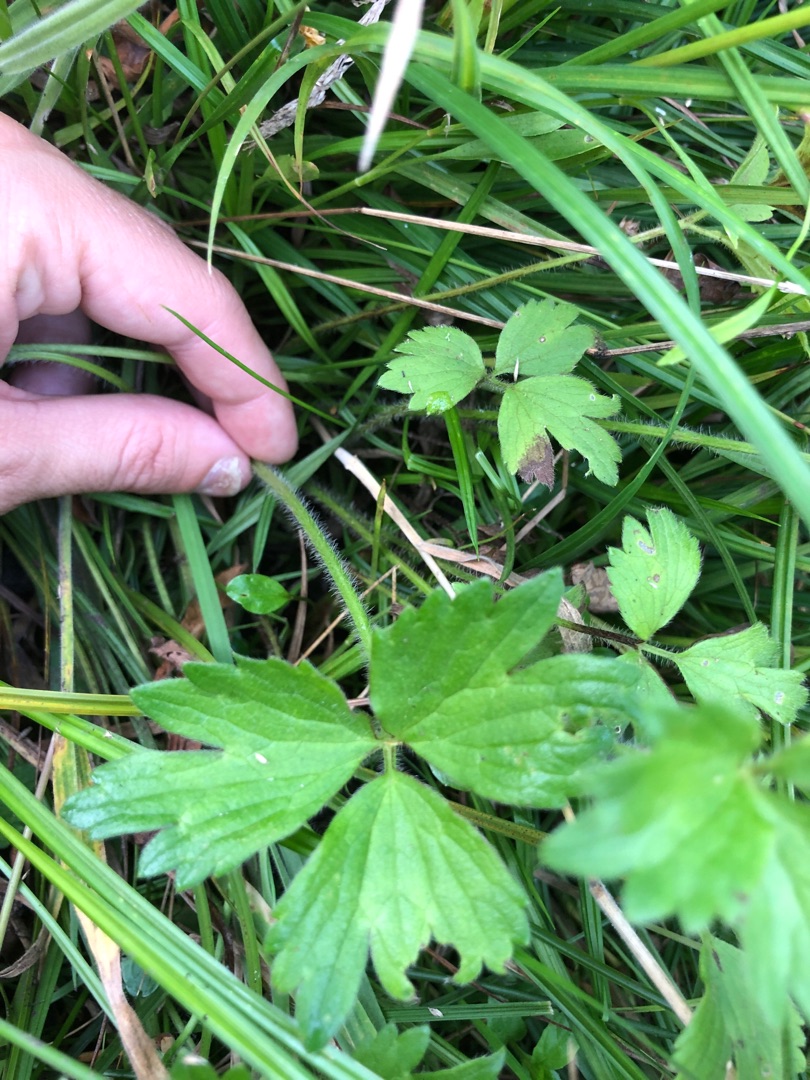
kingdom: Plantae
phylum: Tracheophyta
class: Magnoliopsida
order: Ranunculales
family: Ranunculaceae
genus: Ranunculus
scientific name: Ranunculus repens
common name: Lav ranunkel
